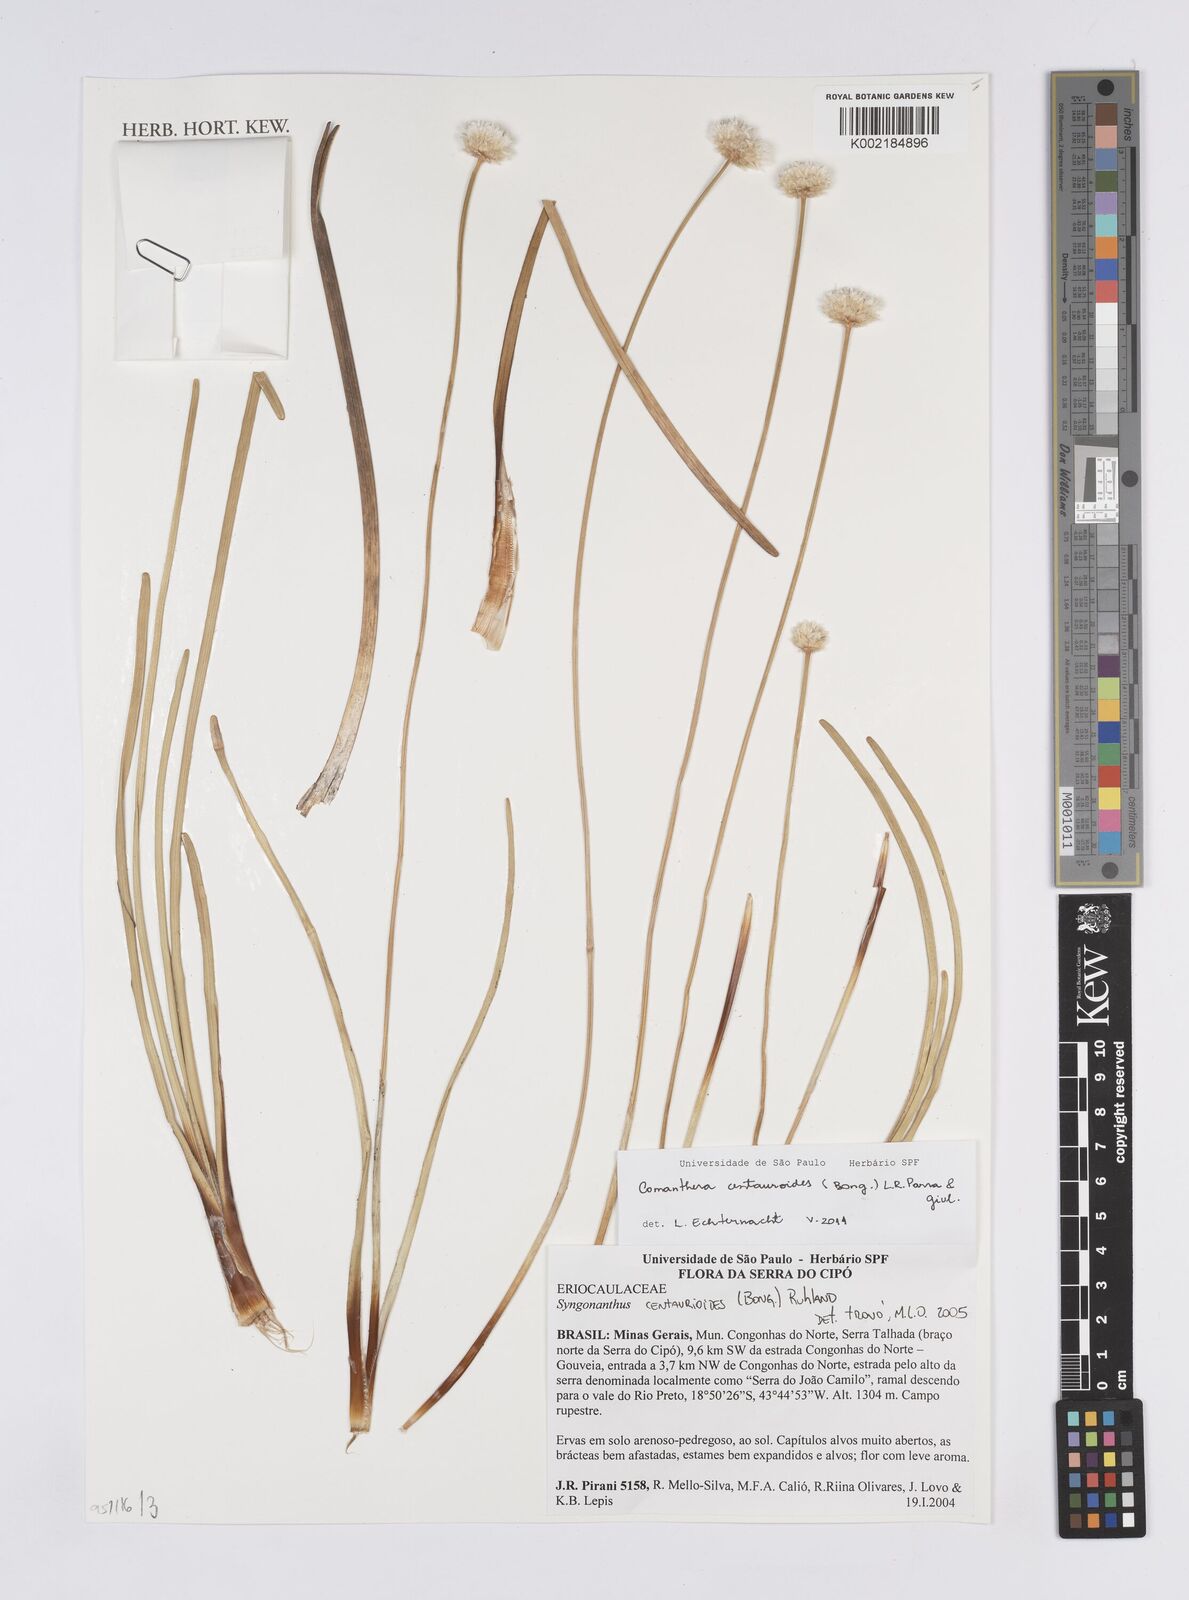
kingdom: Plantae
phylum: Tracheophyta
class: Liliopsida
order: Poales
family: Eriocaulaceae
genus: Comanthera
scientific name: Comanthera centauroides
